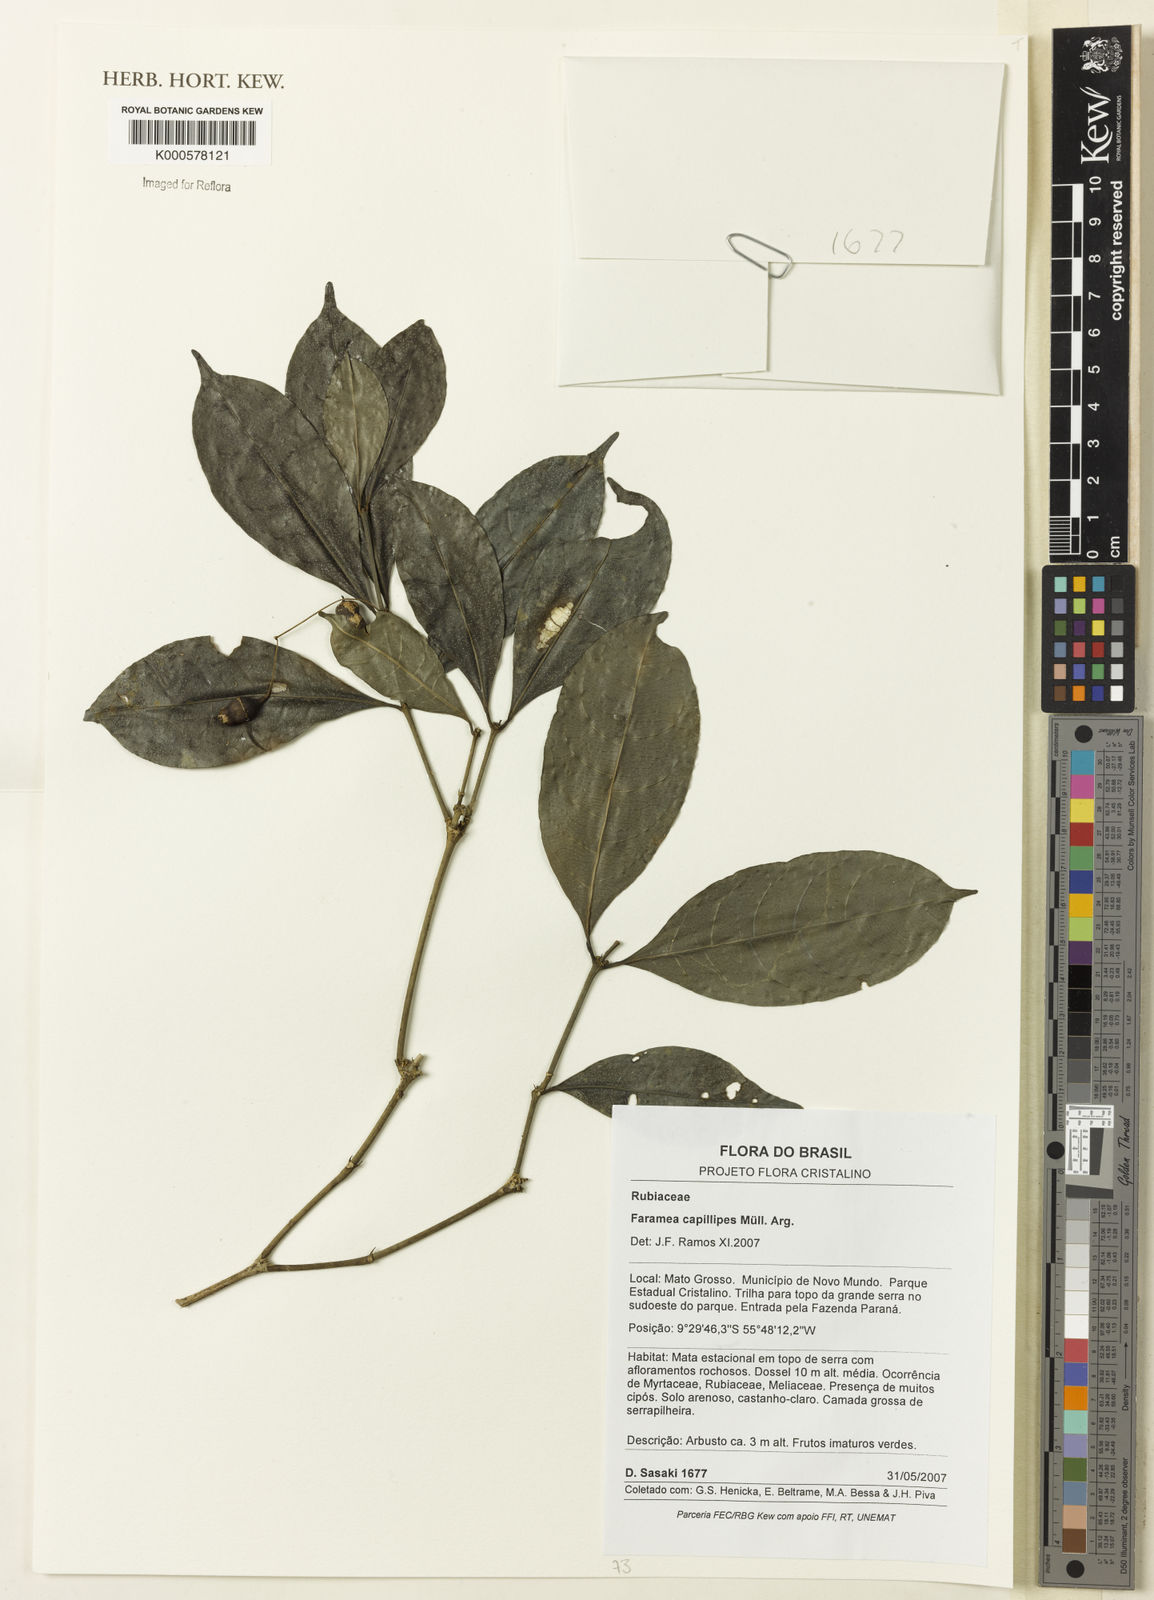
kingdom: Plantae
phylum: Tracheophyta
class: Magnoliopsida
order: Gentianales
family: Rubiaceae
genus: Faramea
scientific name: Faramea
